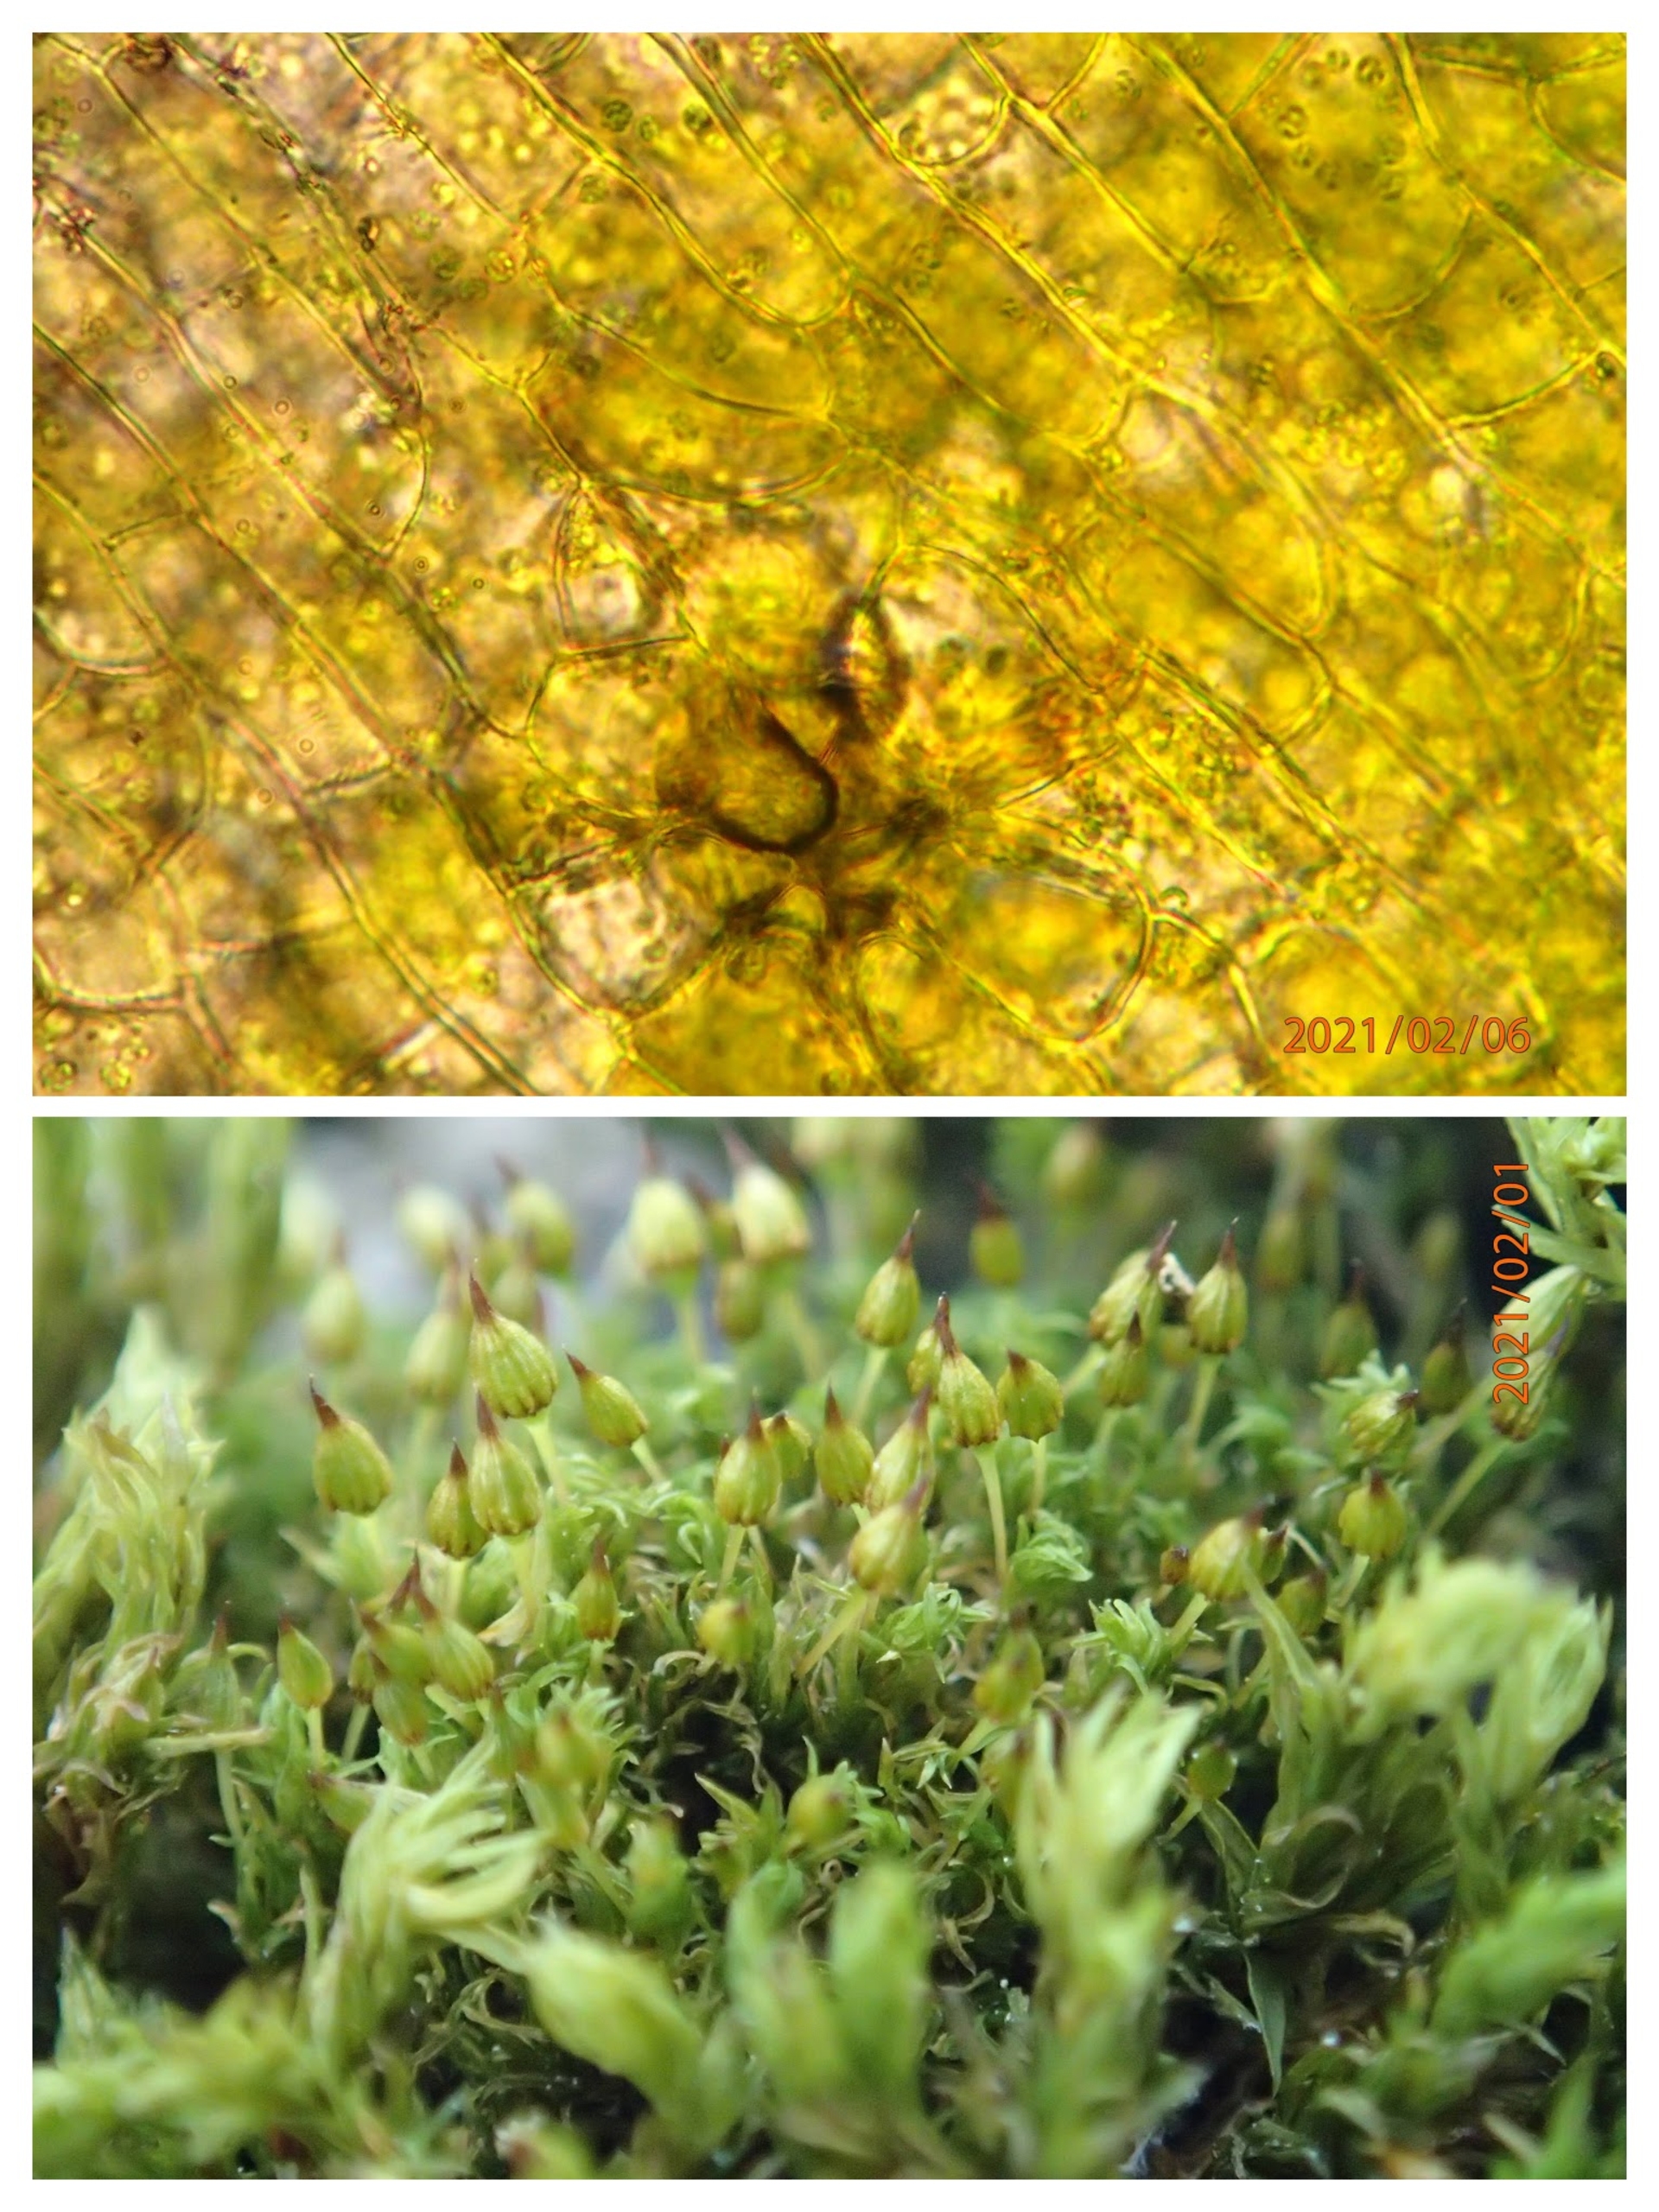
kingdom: Plantae
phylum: Bryophyta
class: Bryopsida
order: Orthotrichales
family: Orthotrichaceae
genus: Orthotrichum
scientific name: Orthotrichum pulchellum
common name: Smuk furehætte
